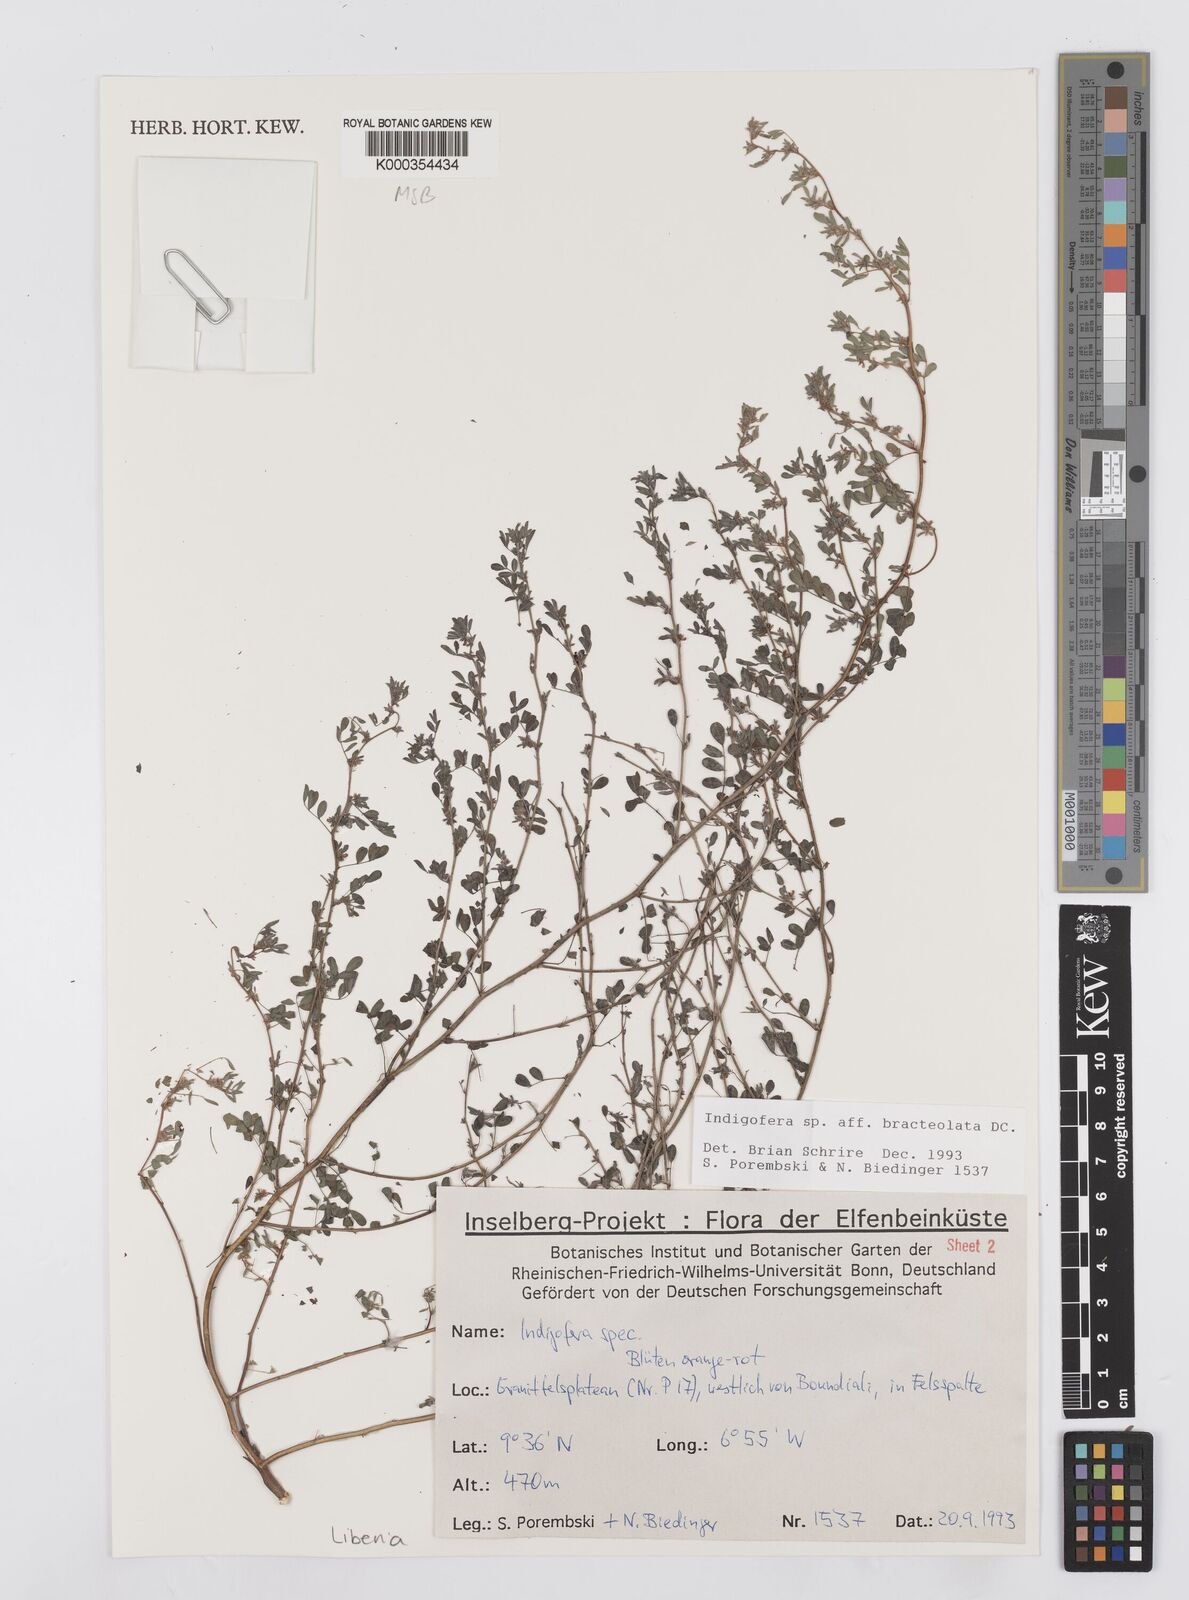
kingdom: Plantae
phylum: Tracheophyta
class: Magnoliopsida
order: Fabales
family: Fabaceae
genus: Indigofera
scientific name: Indigofera bracteolata
